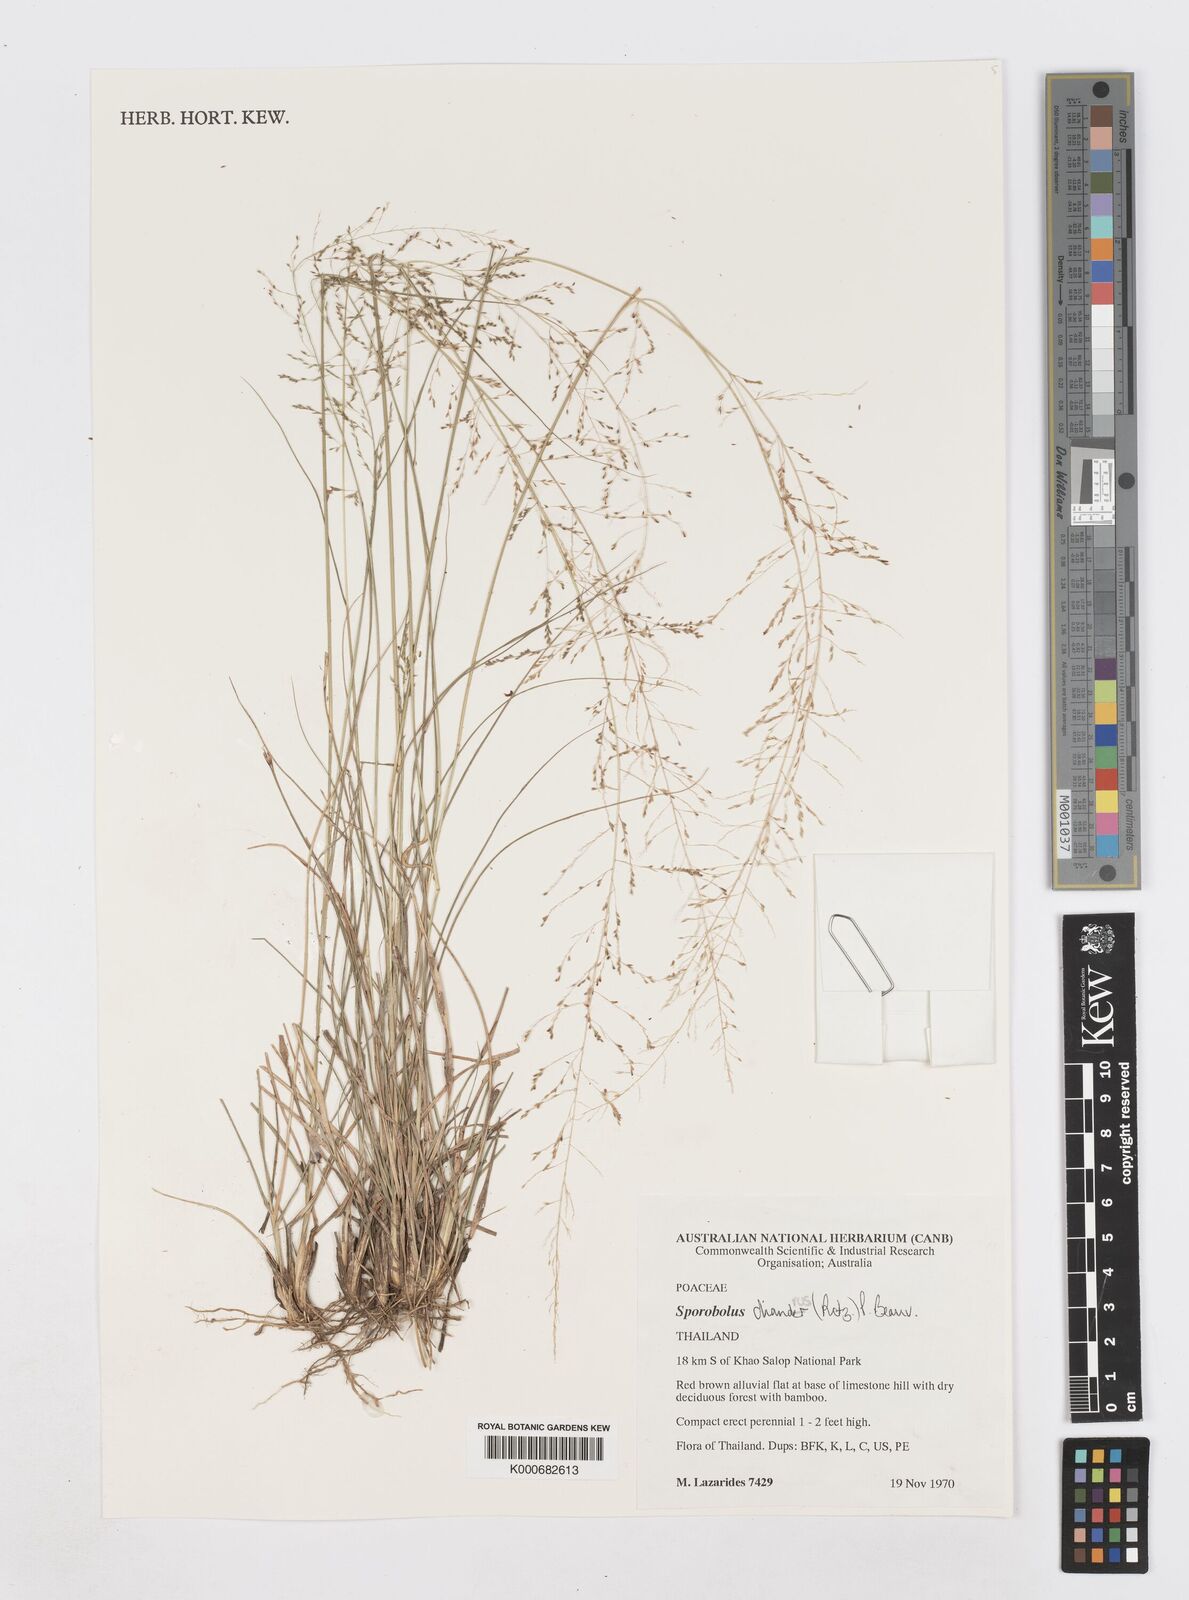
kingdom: Plantae
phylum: Tracheophyta
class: Liliopsida
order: Poales
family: Poaceae
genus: Sporobolus
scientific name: Sporobolus diandrus
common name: Tussock dropseed
